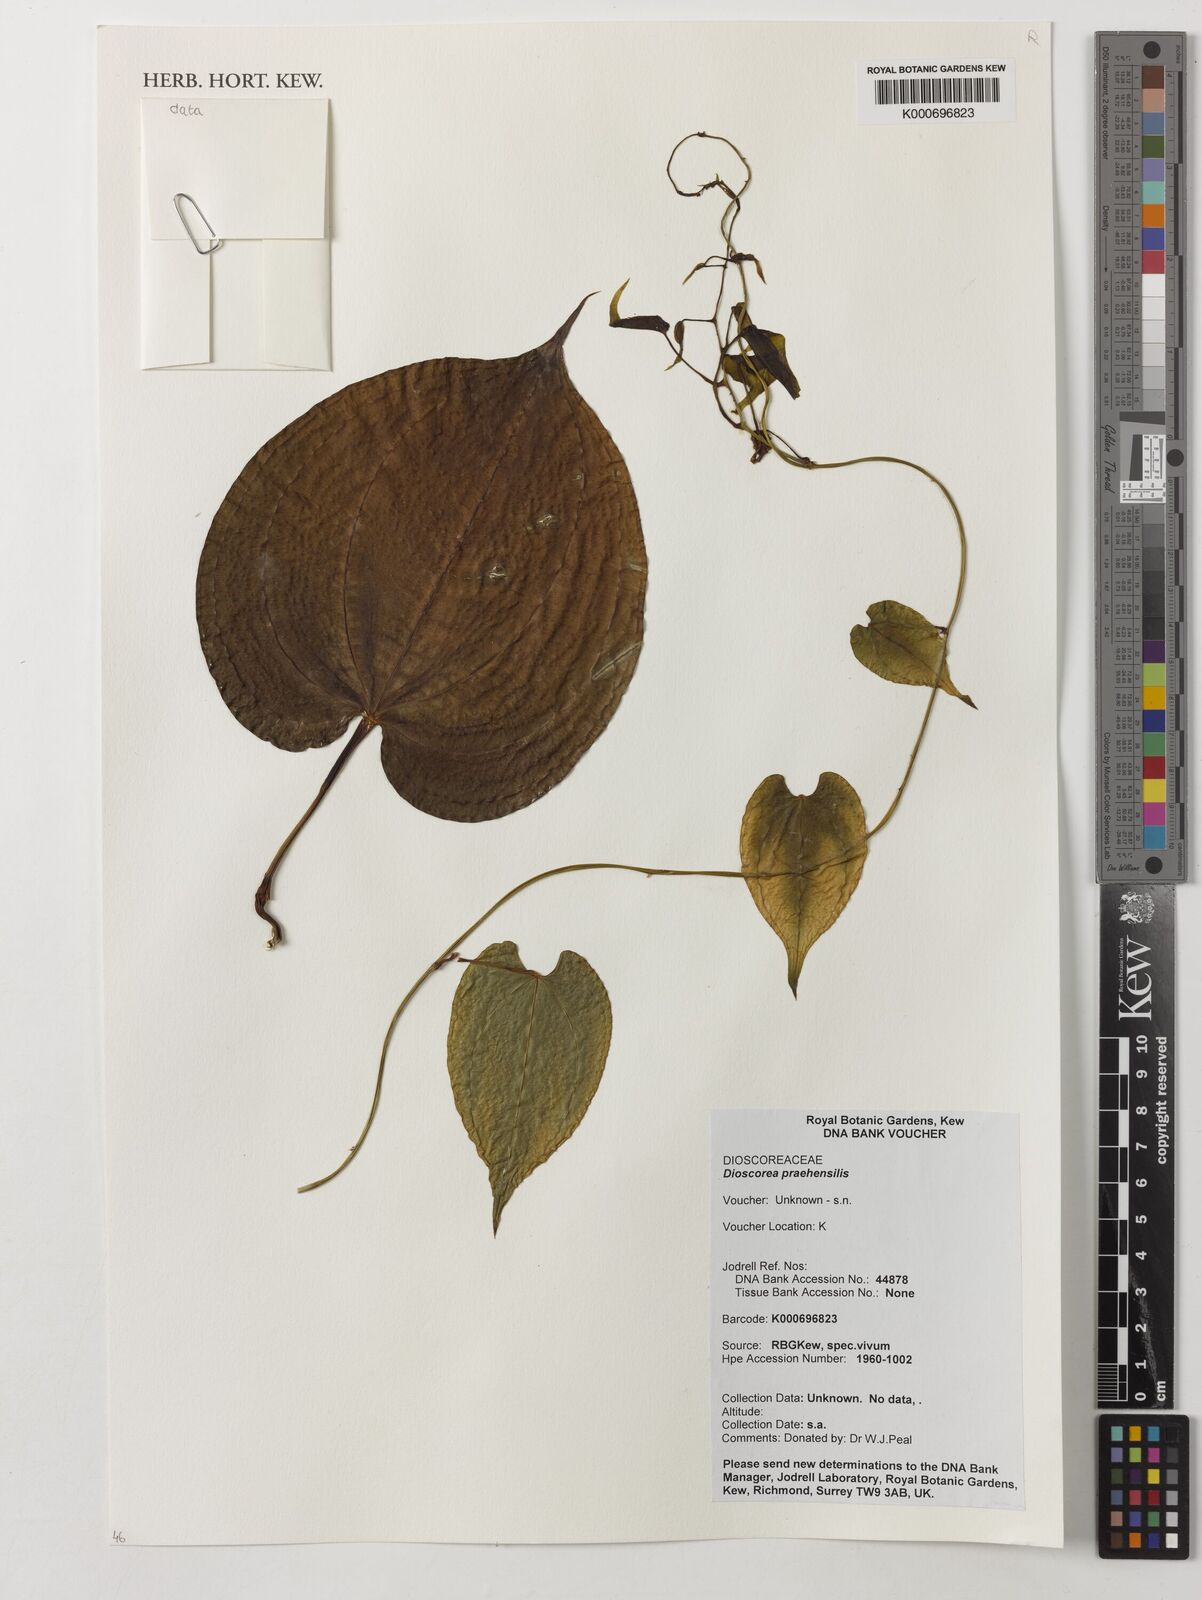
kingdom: Plantae
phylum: Tracheophyta
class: Liliopsida
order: Dioscoreales
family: Dioscoreaceae
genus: Dioscorea
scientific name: Dioscorea praehensilis
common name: Bush yam
